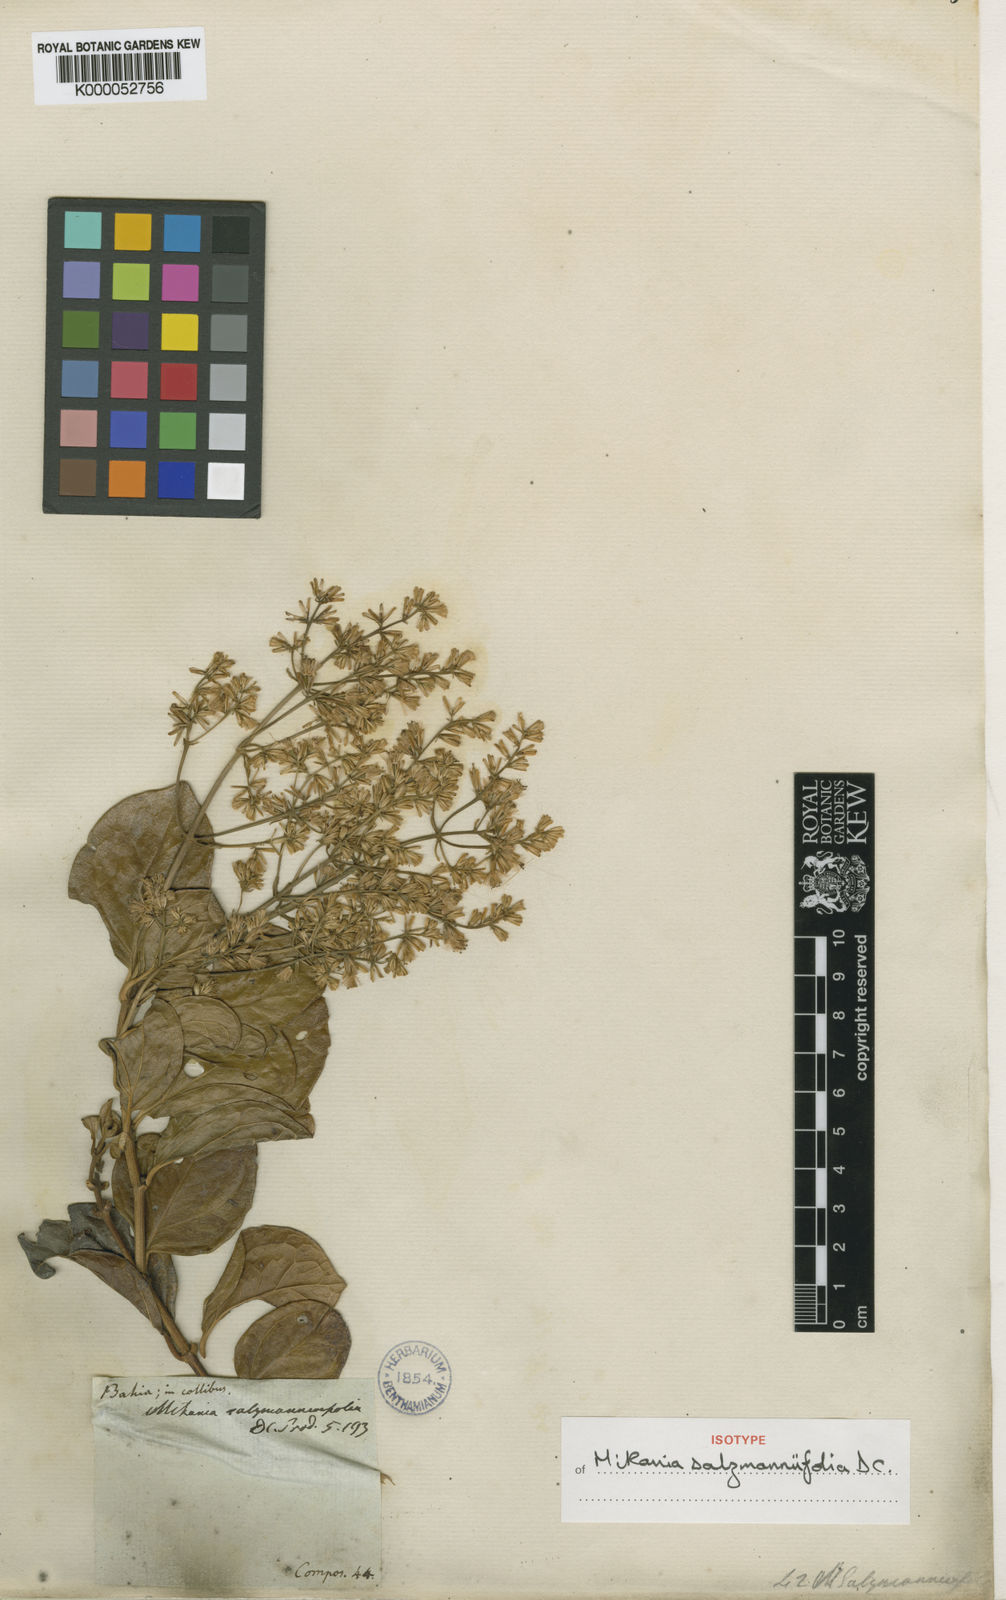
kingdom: Plantae
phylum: Tracheophyta
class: Magnoliopsida
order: Asterales
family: Asteraceae
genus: Mikania
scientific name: Mikania salzmanniifolia
